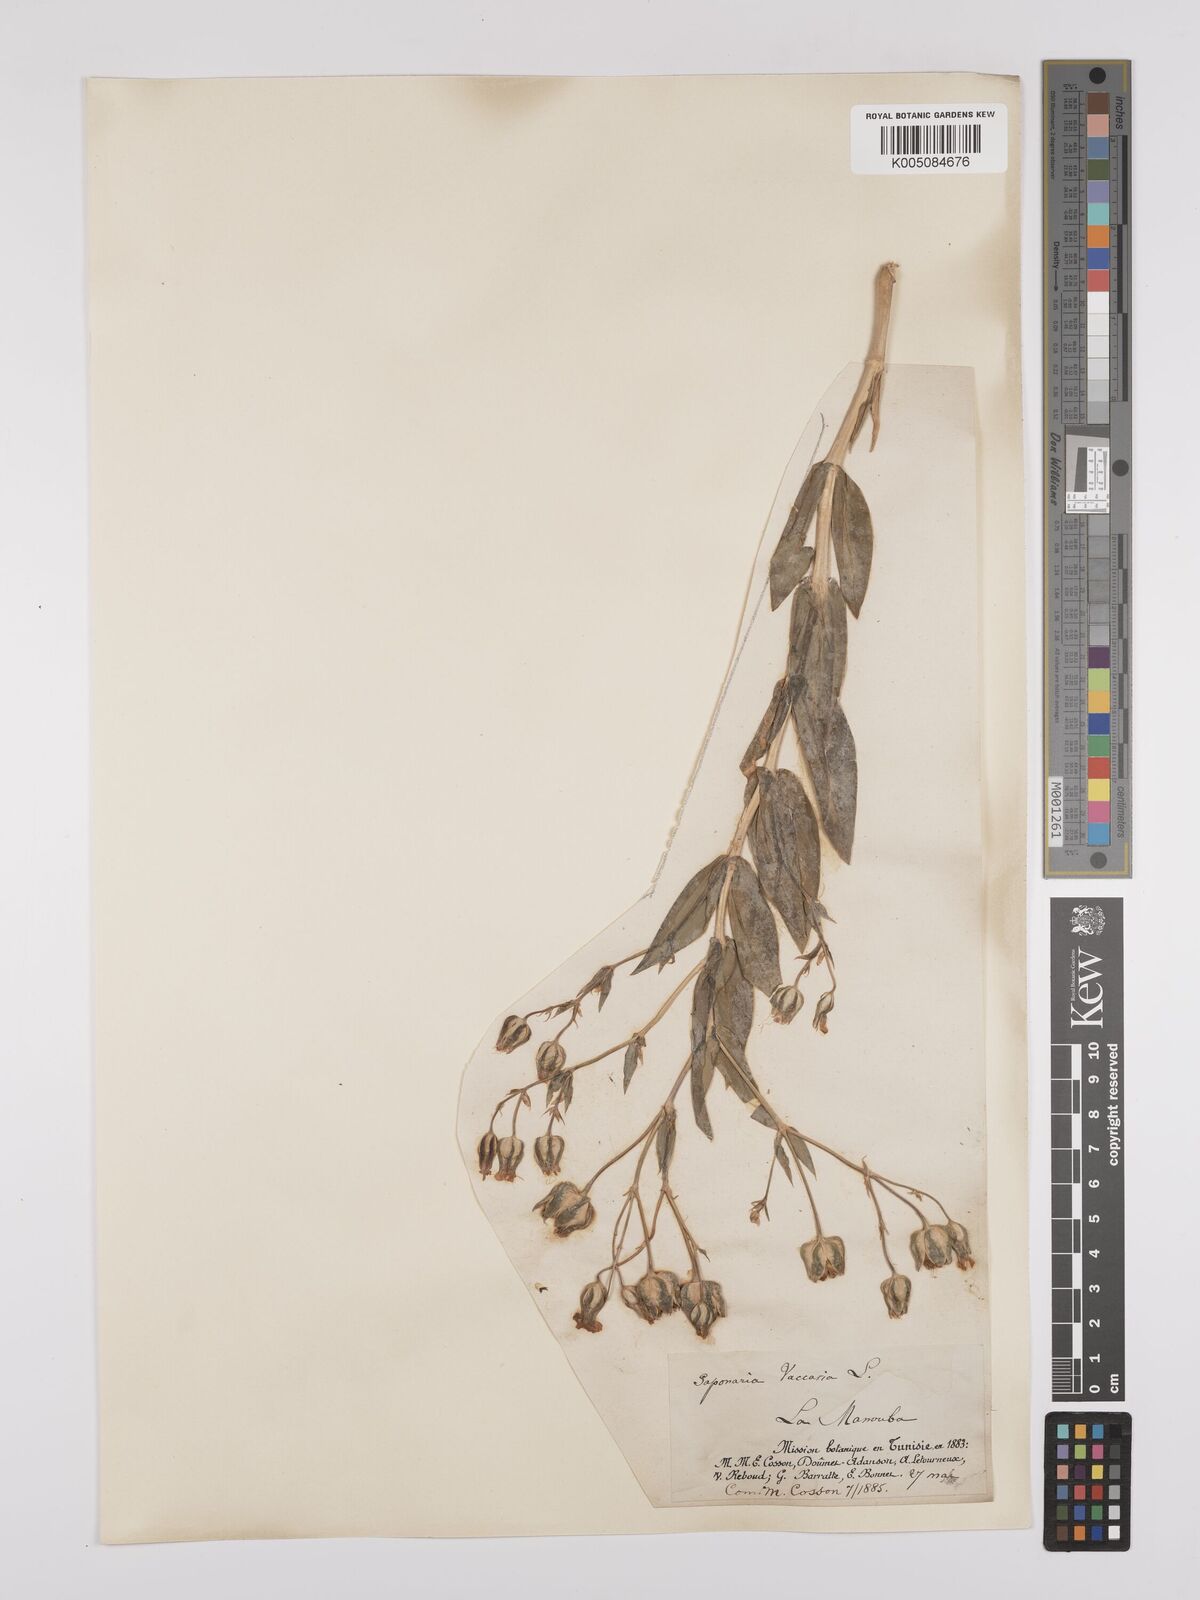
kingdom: Plantae
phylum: Tracheophyta
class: Magnoliopsida
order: Caryophyllales
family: Caryophyllaceae
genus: Gypsophila
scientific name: Gypsophila vaccaria
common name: Cow soapwort
